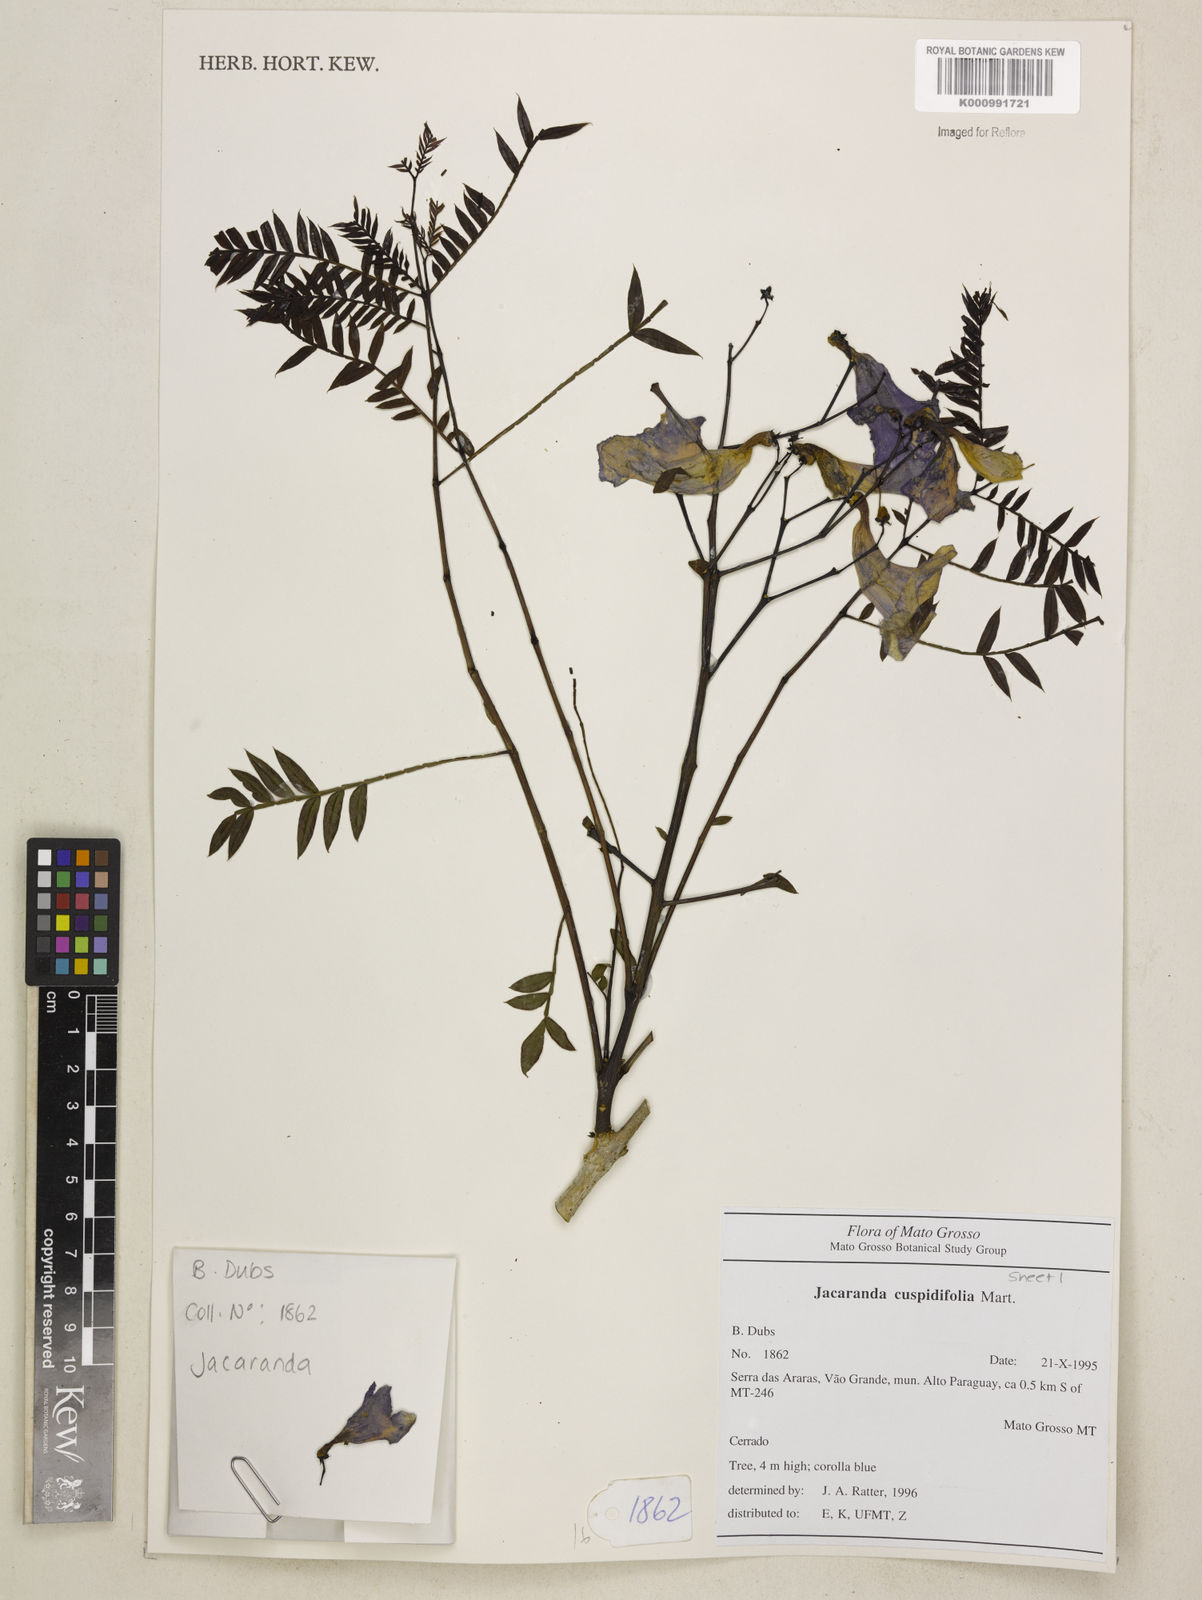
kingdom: Plantae
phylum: Tracheophyta
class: Magnoliopsida
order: Lamiales
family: Bignoniaceae
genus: Jacaranda
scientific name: Jacaranda cuspidifolia
